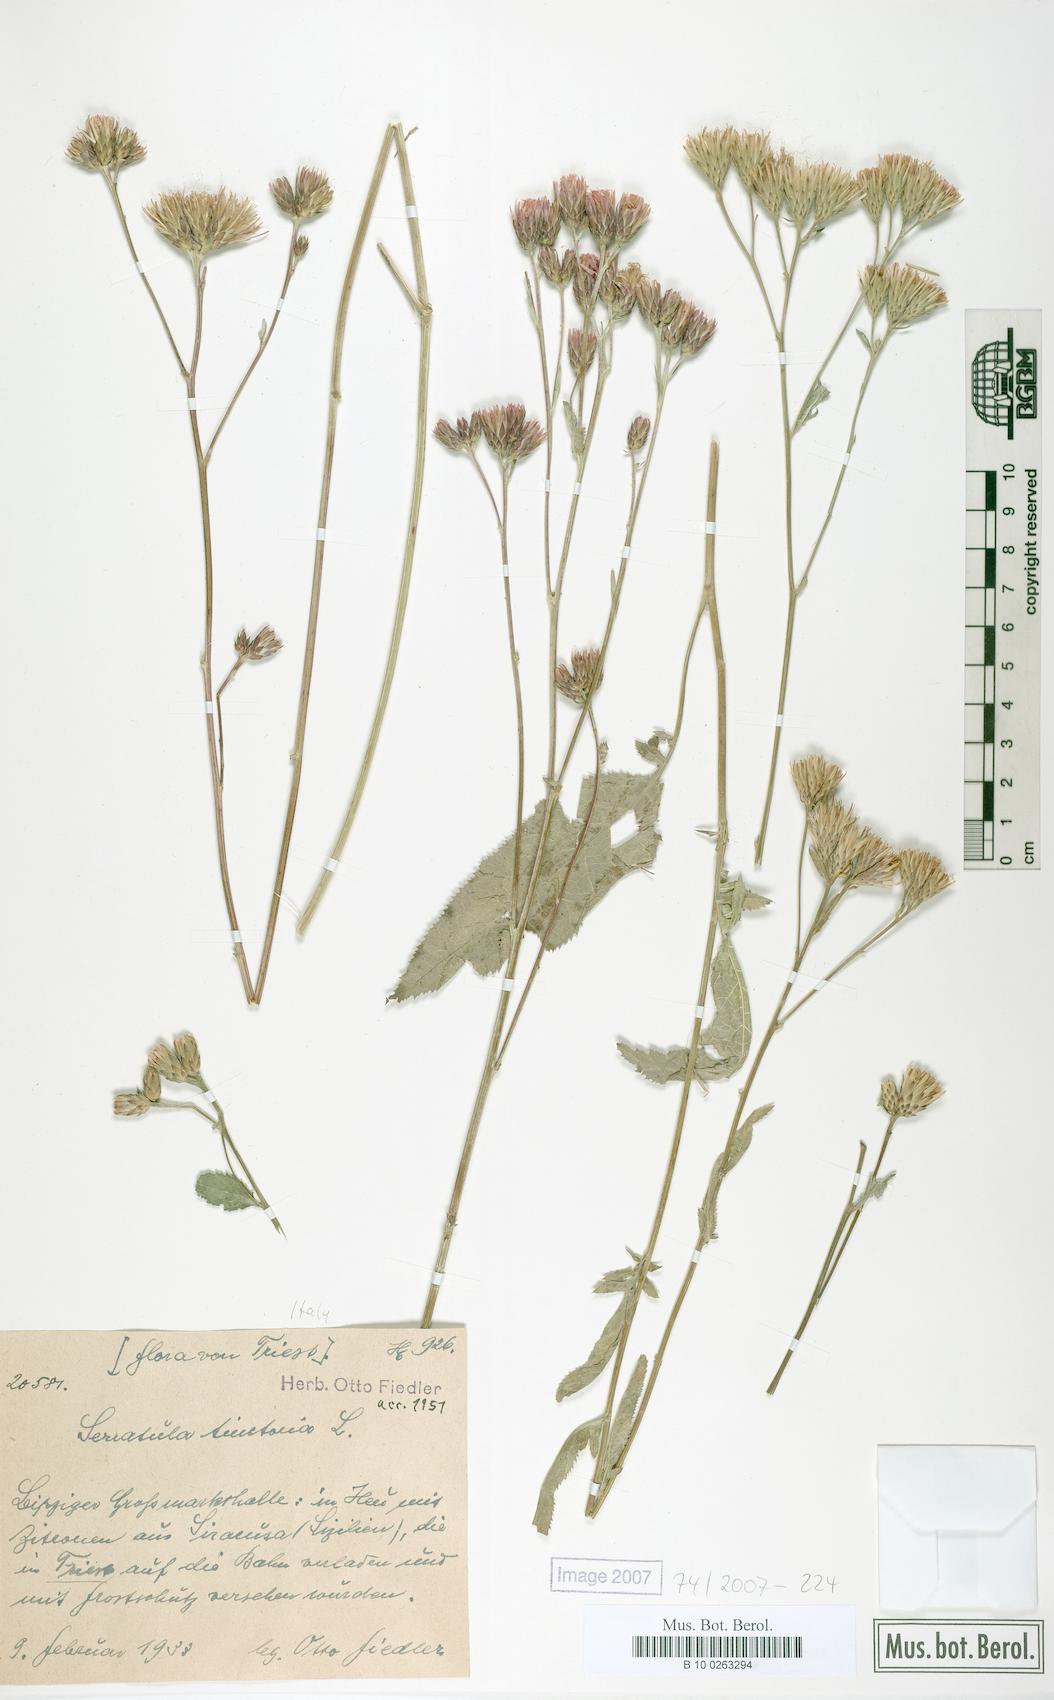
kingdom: Plantae
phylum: Tracheophyta
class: Magnoliopsida
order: Asterales
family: Asteraceae
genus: Serratula
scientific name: Serratula tinctoria
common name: Saw-wort
